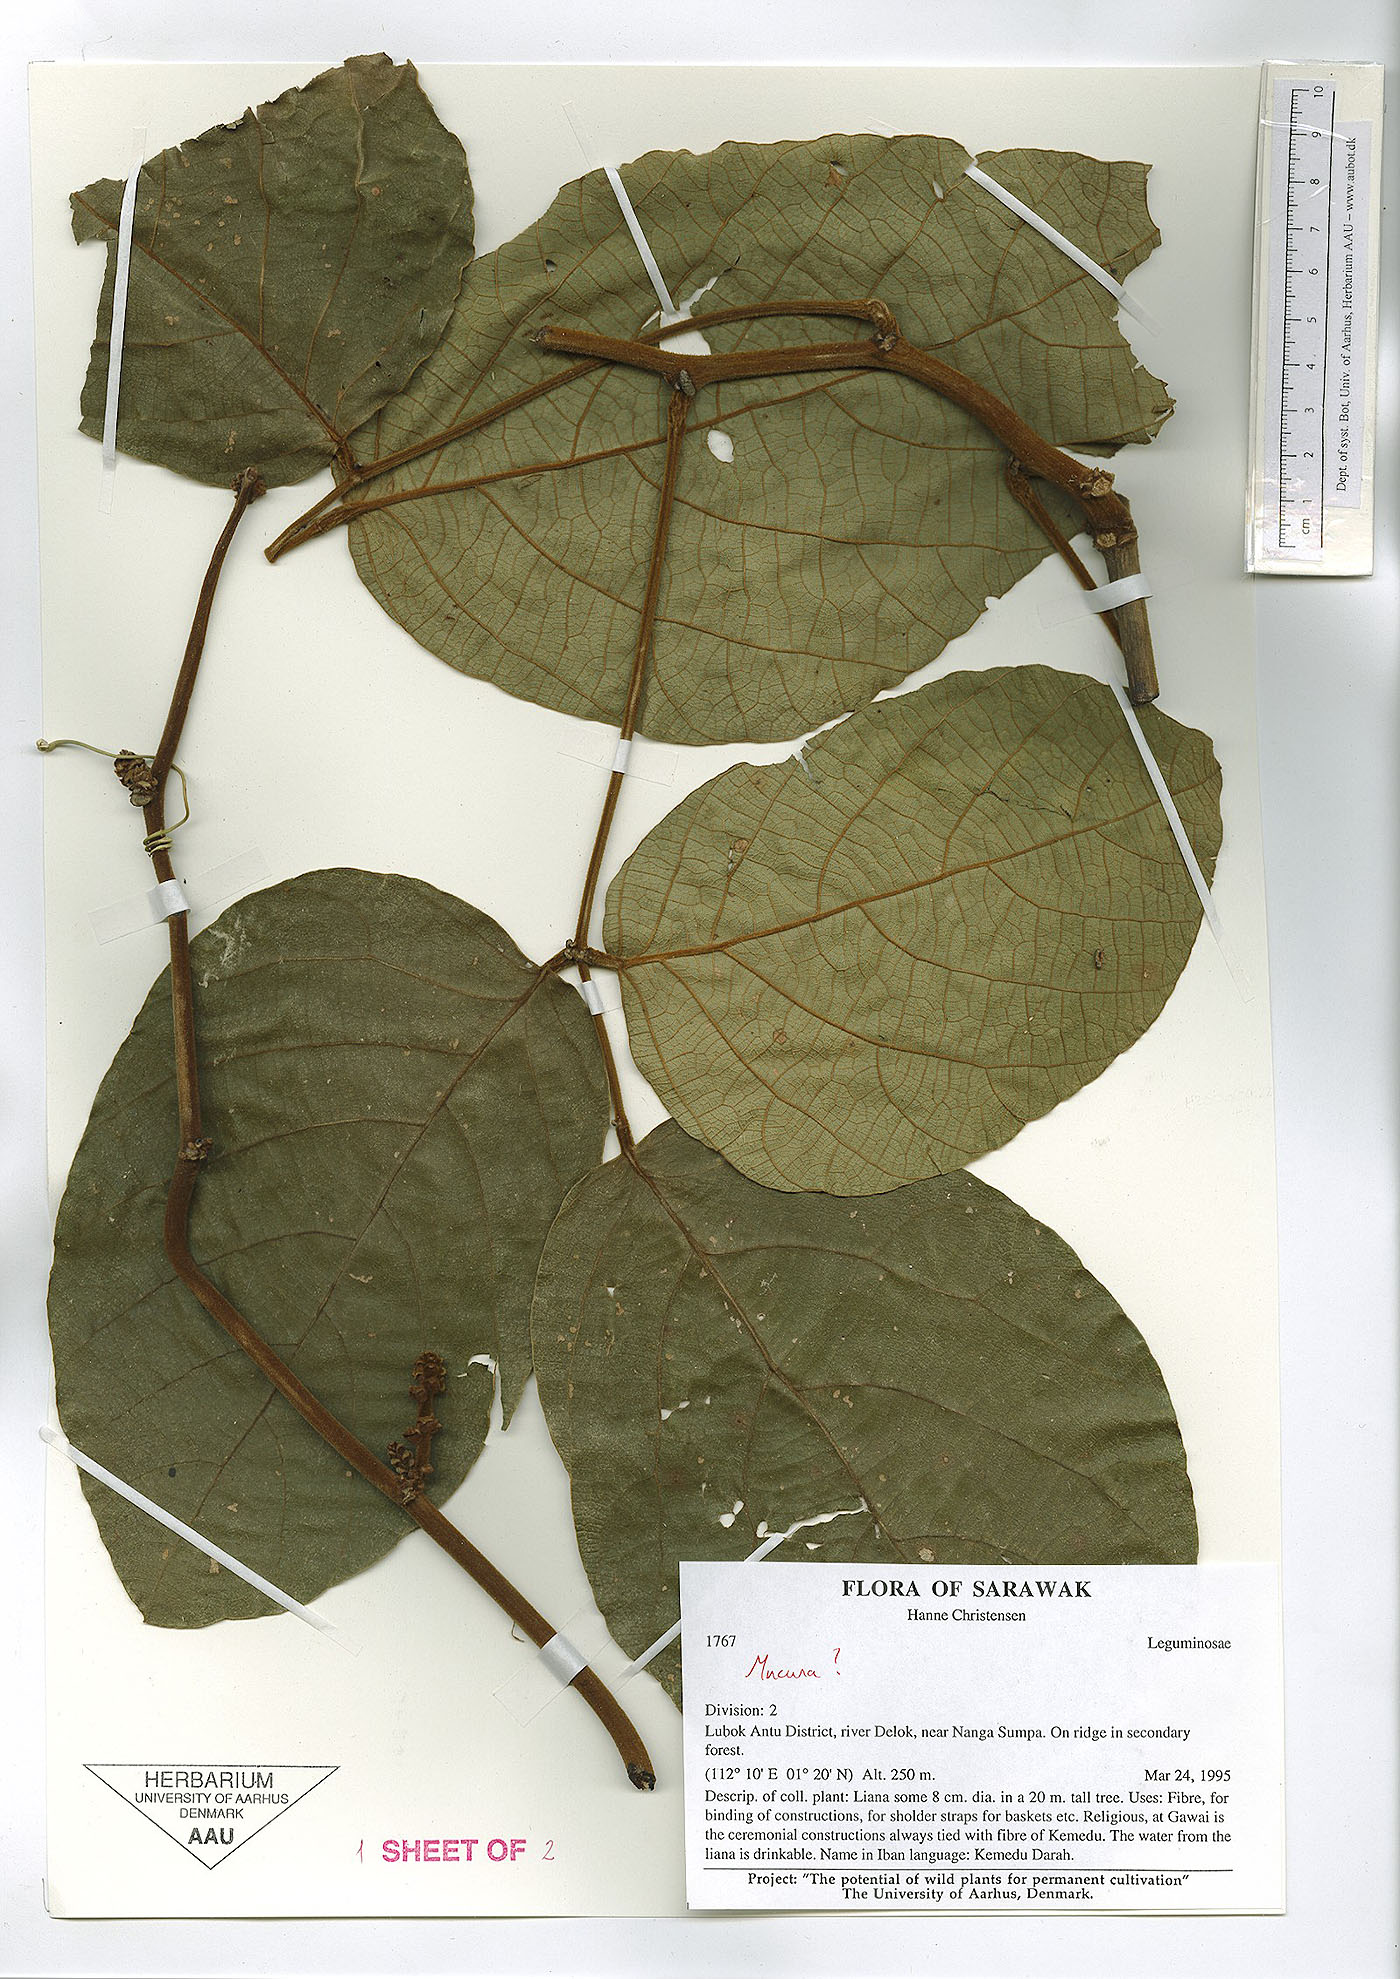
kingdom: Plantae
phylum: Tracheophyta
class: Magnoliopsida
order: Fabales
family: Fabaceae
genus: Spatholobus
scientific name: Spatholobus ferrugineus
